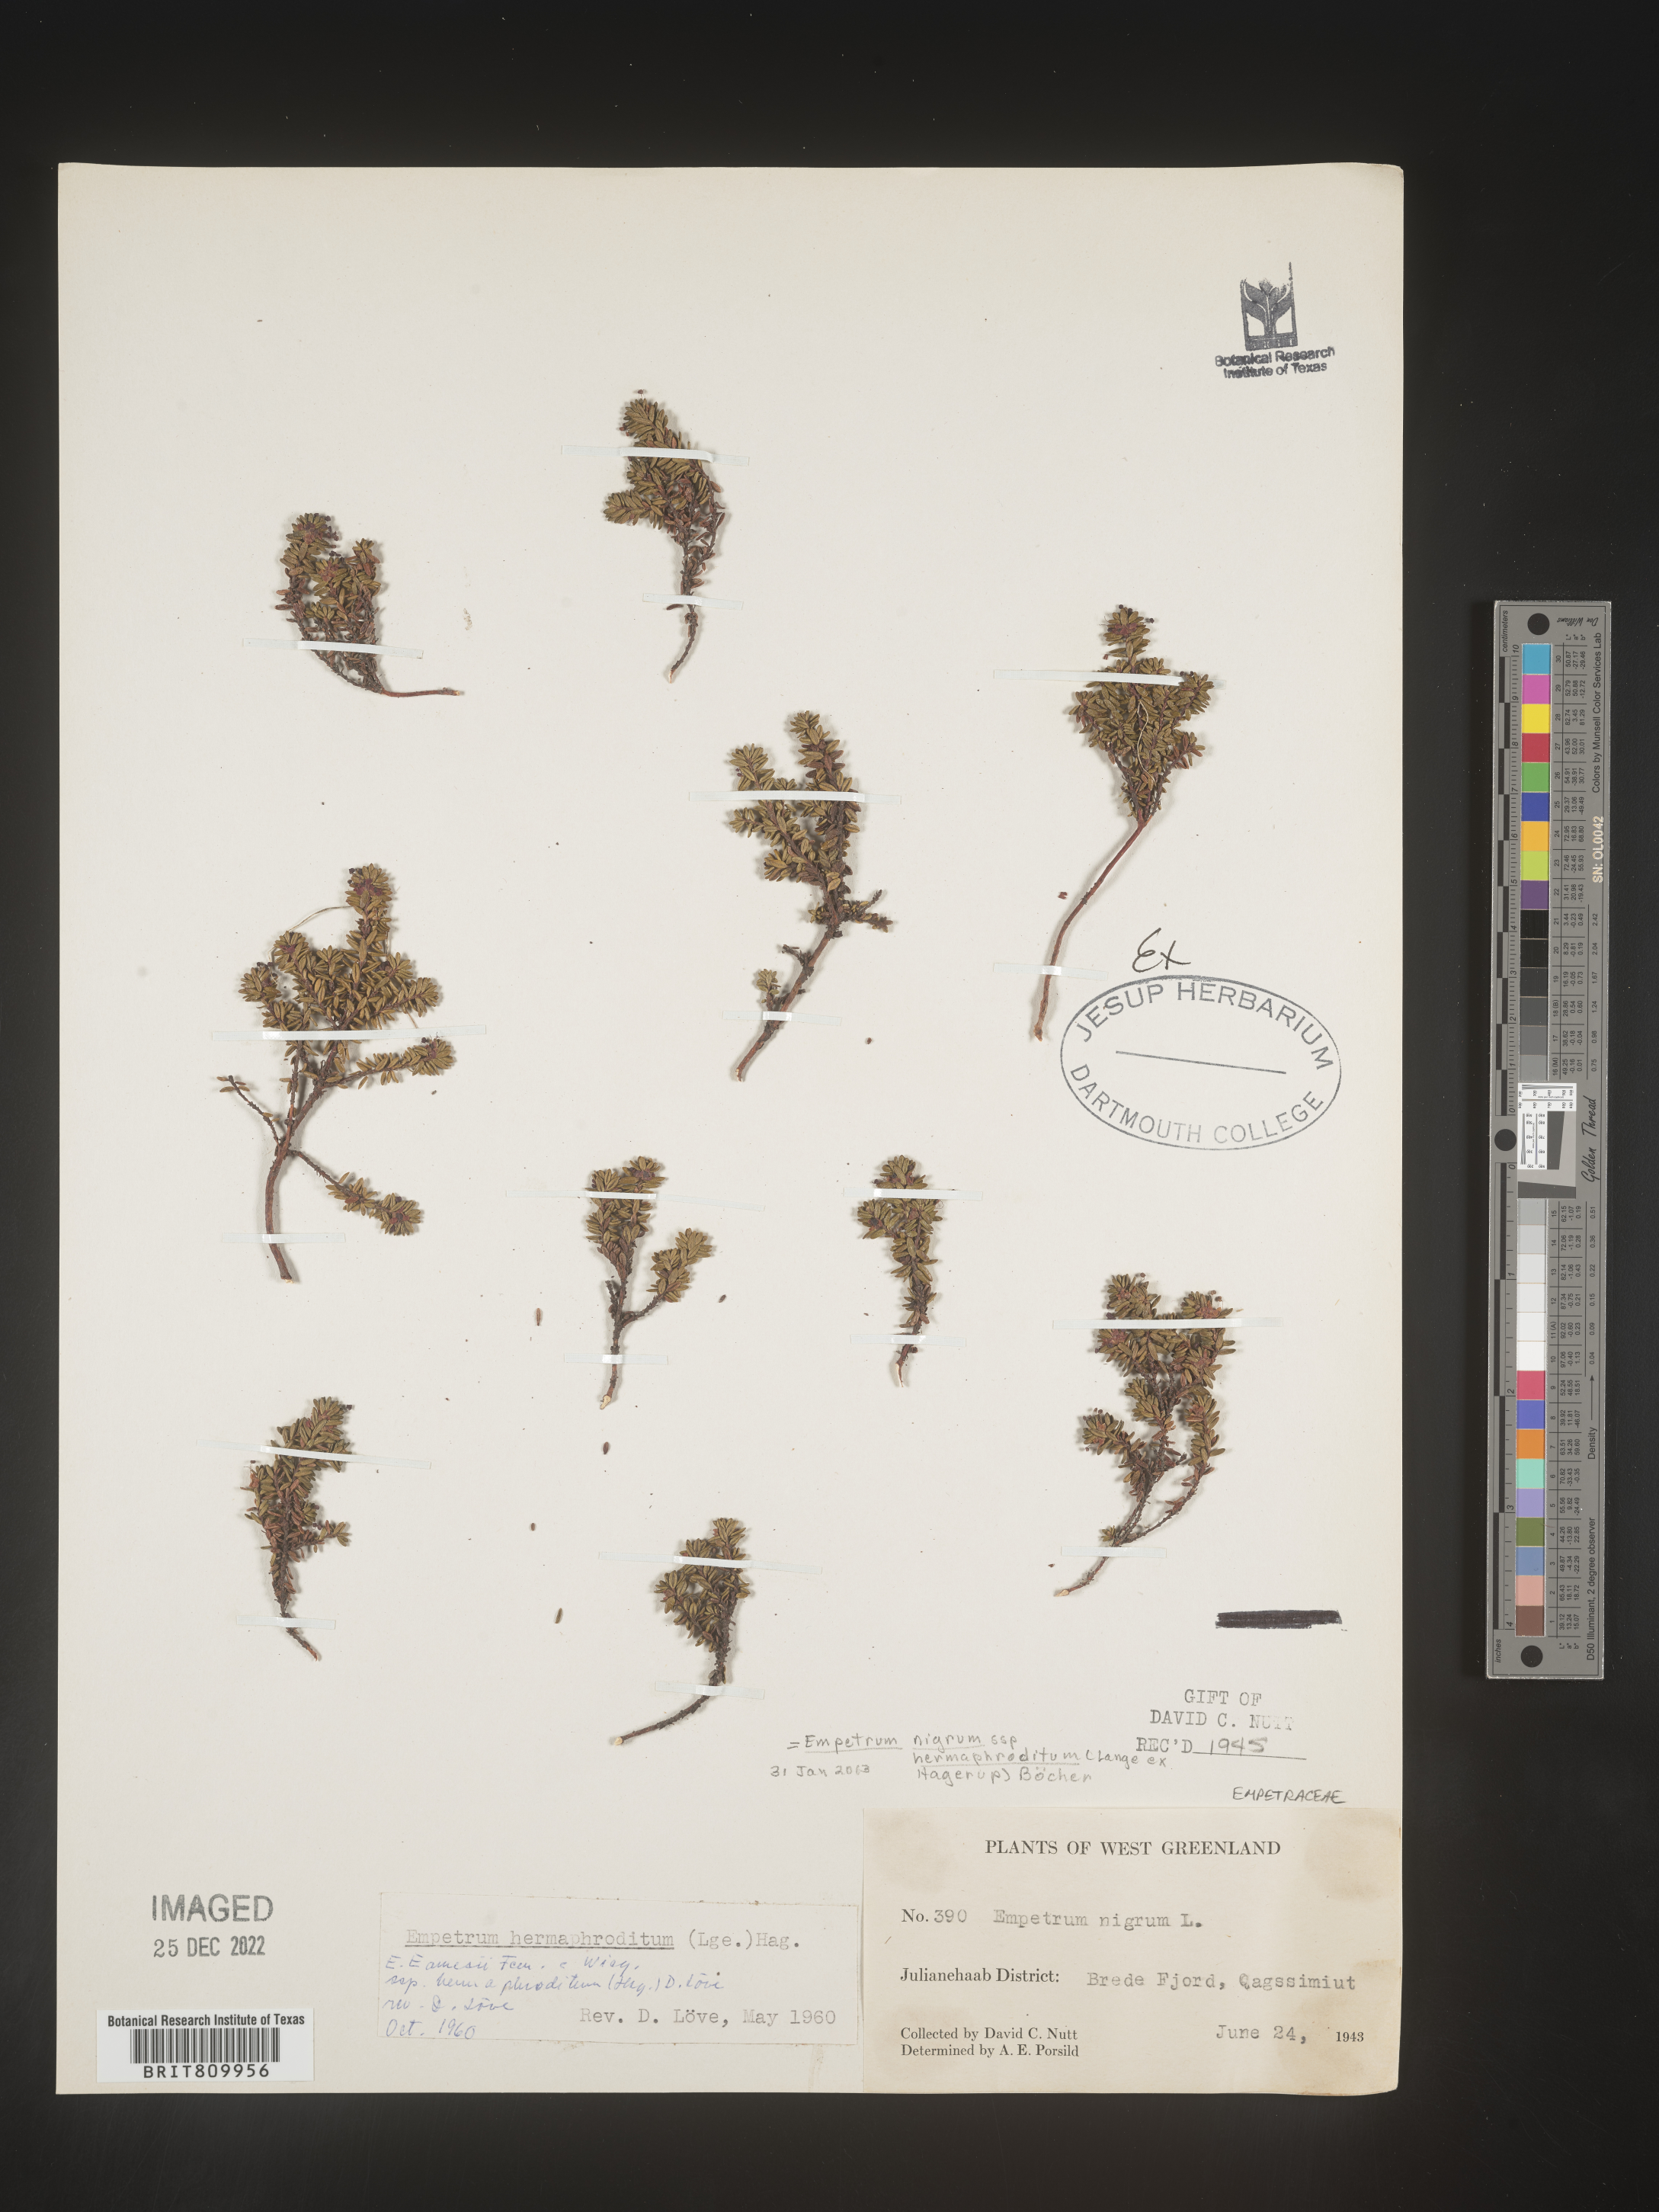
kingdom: Plantae
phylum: Tracheophyta
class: Magnoliopsida
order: Ericales
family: Ericaceae
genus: Empetrum
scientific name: Empetrum
